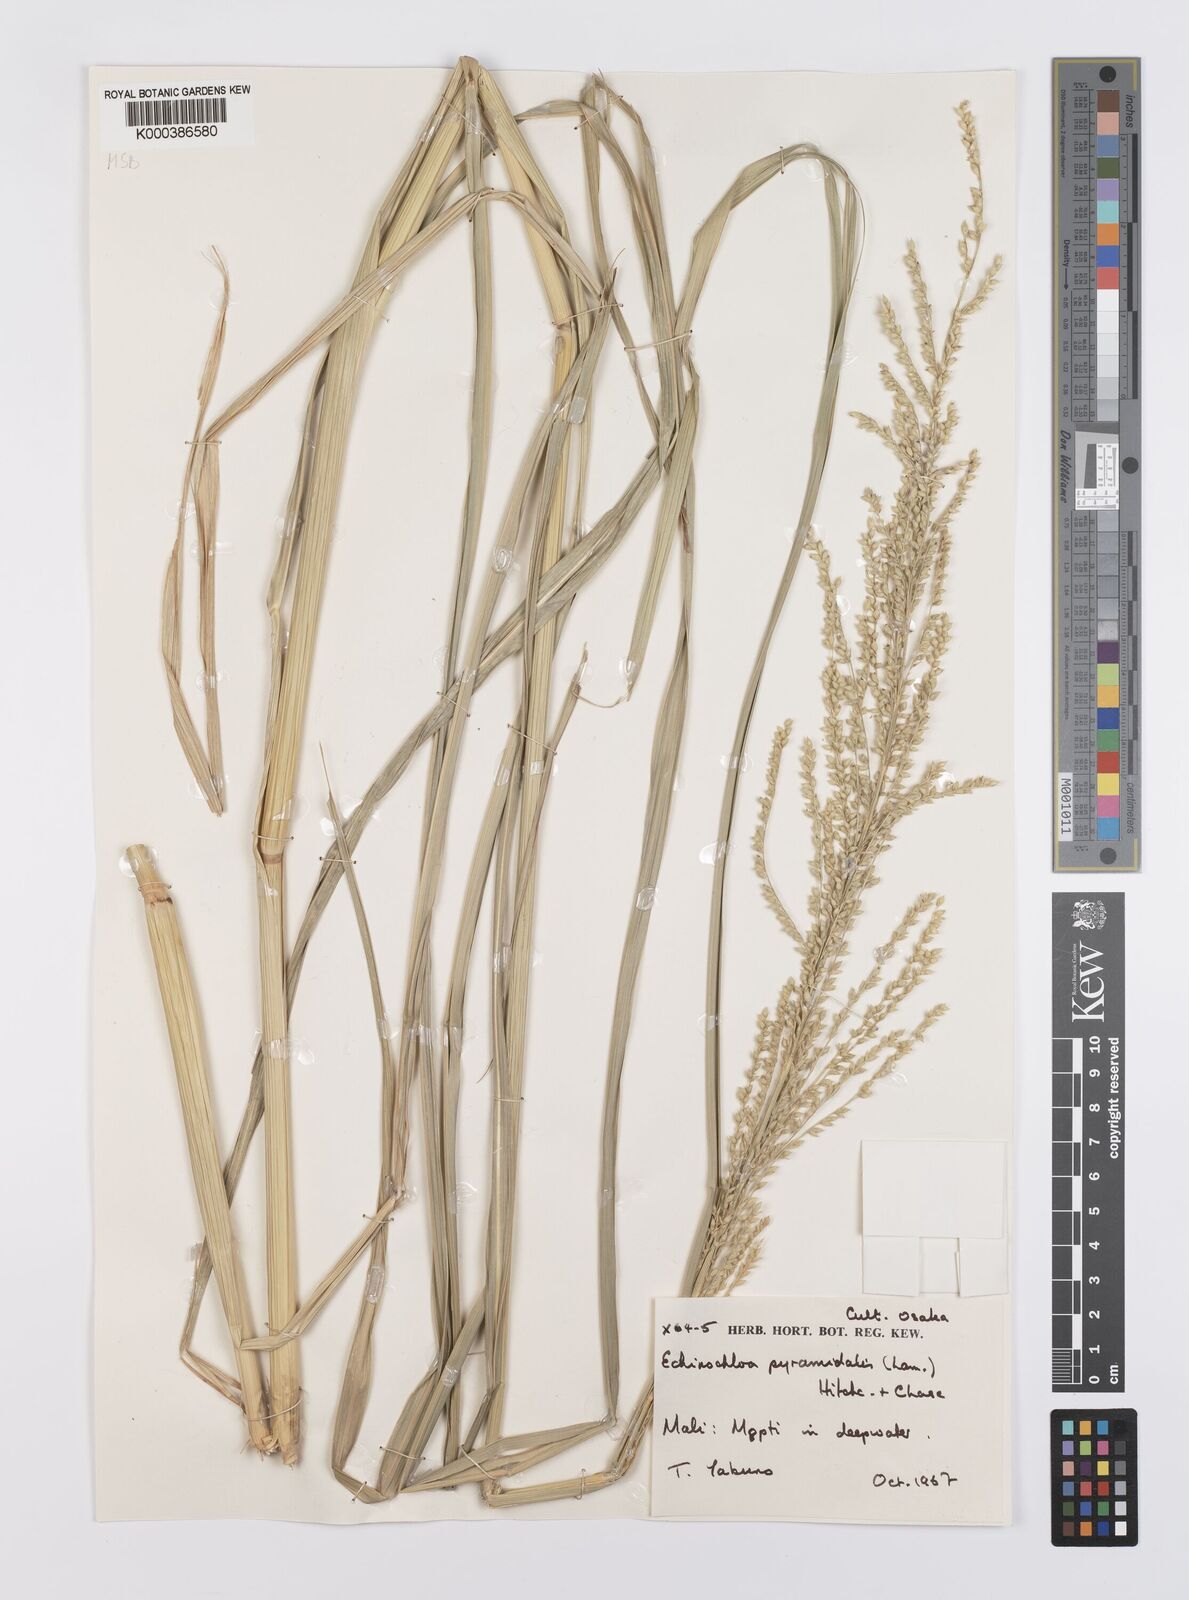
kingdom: Plantae
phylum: Tracheophyta
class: Liliopsida
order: Poales
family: Poaceae
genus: Echinochloa
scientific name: Echinochloa pyramidalis
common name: Antelope grass
